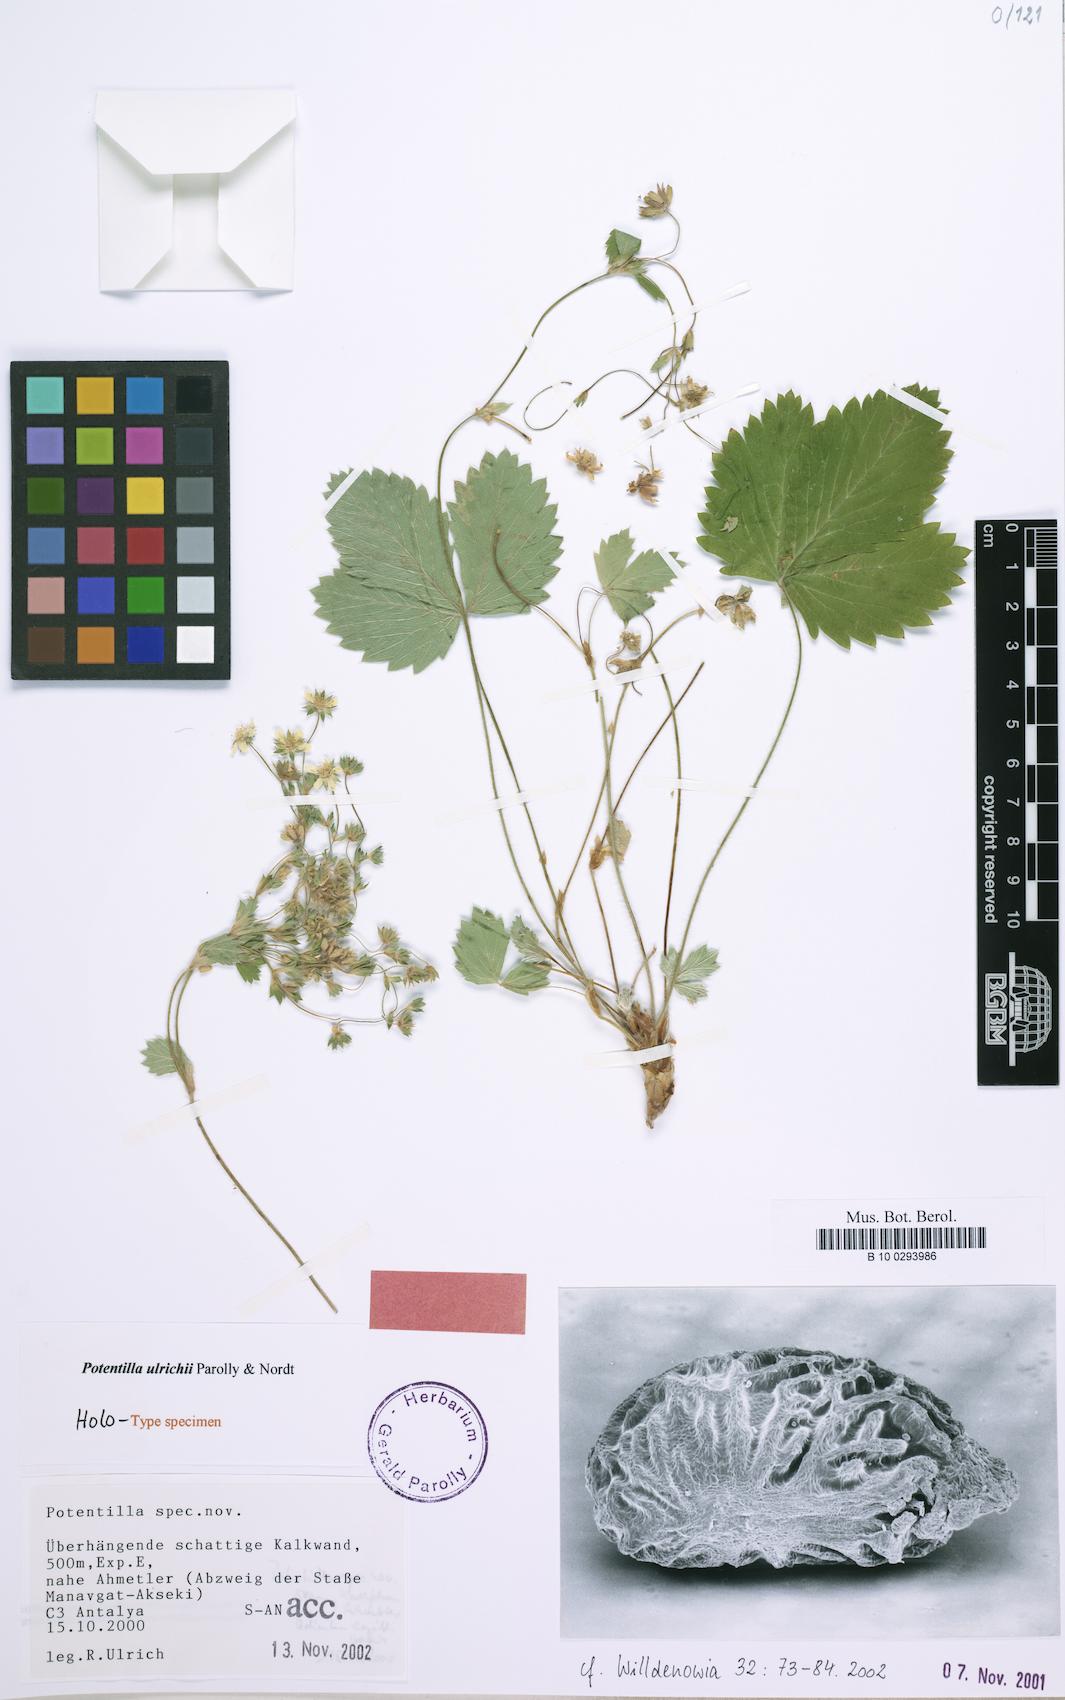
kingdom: Plantae
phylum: Tracheophyta
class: Magnoliopsida
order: Rosales
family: Rosaceae
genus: Potentilla
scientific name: Potentilla ulrichii
